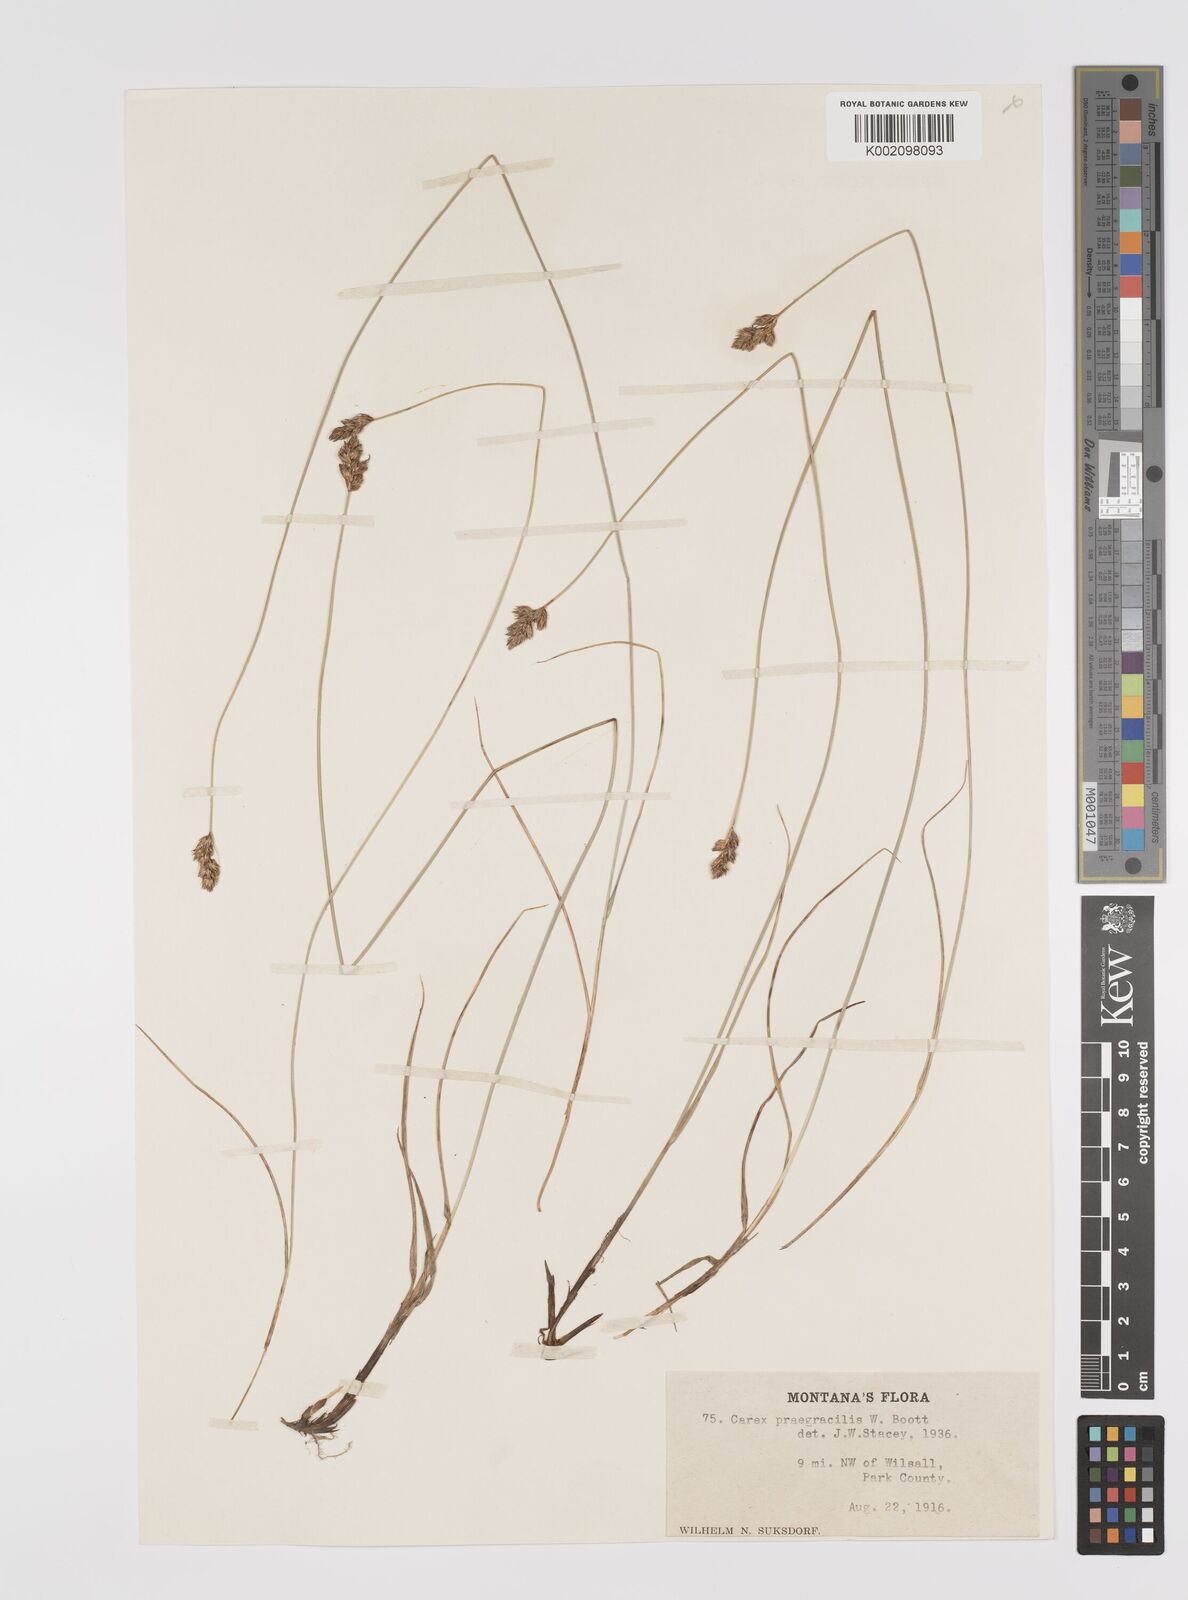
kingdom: Plantae
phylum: Tracheophyta
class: Liliopsida
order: Poales
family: Cyperaceae
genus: Carex
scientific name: Carex praegracilis
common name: Black creeper sedge
